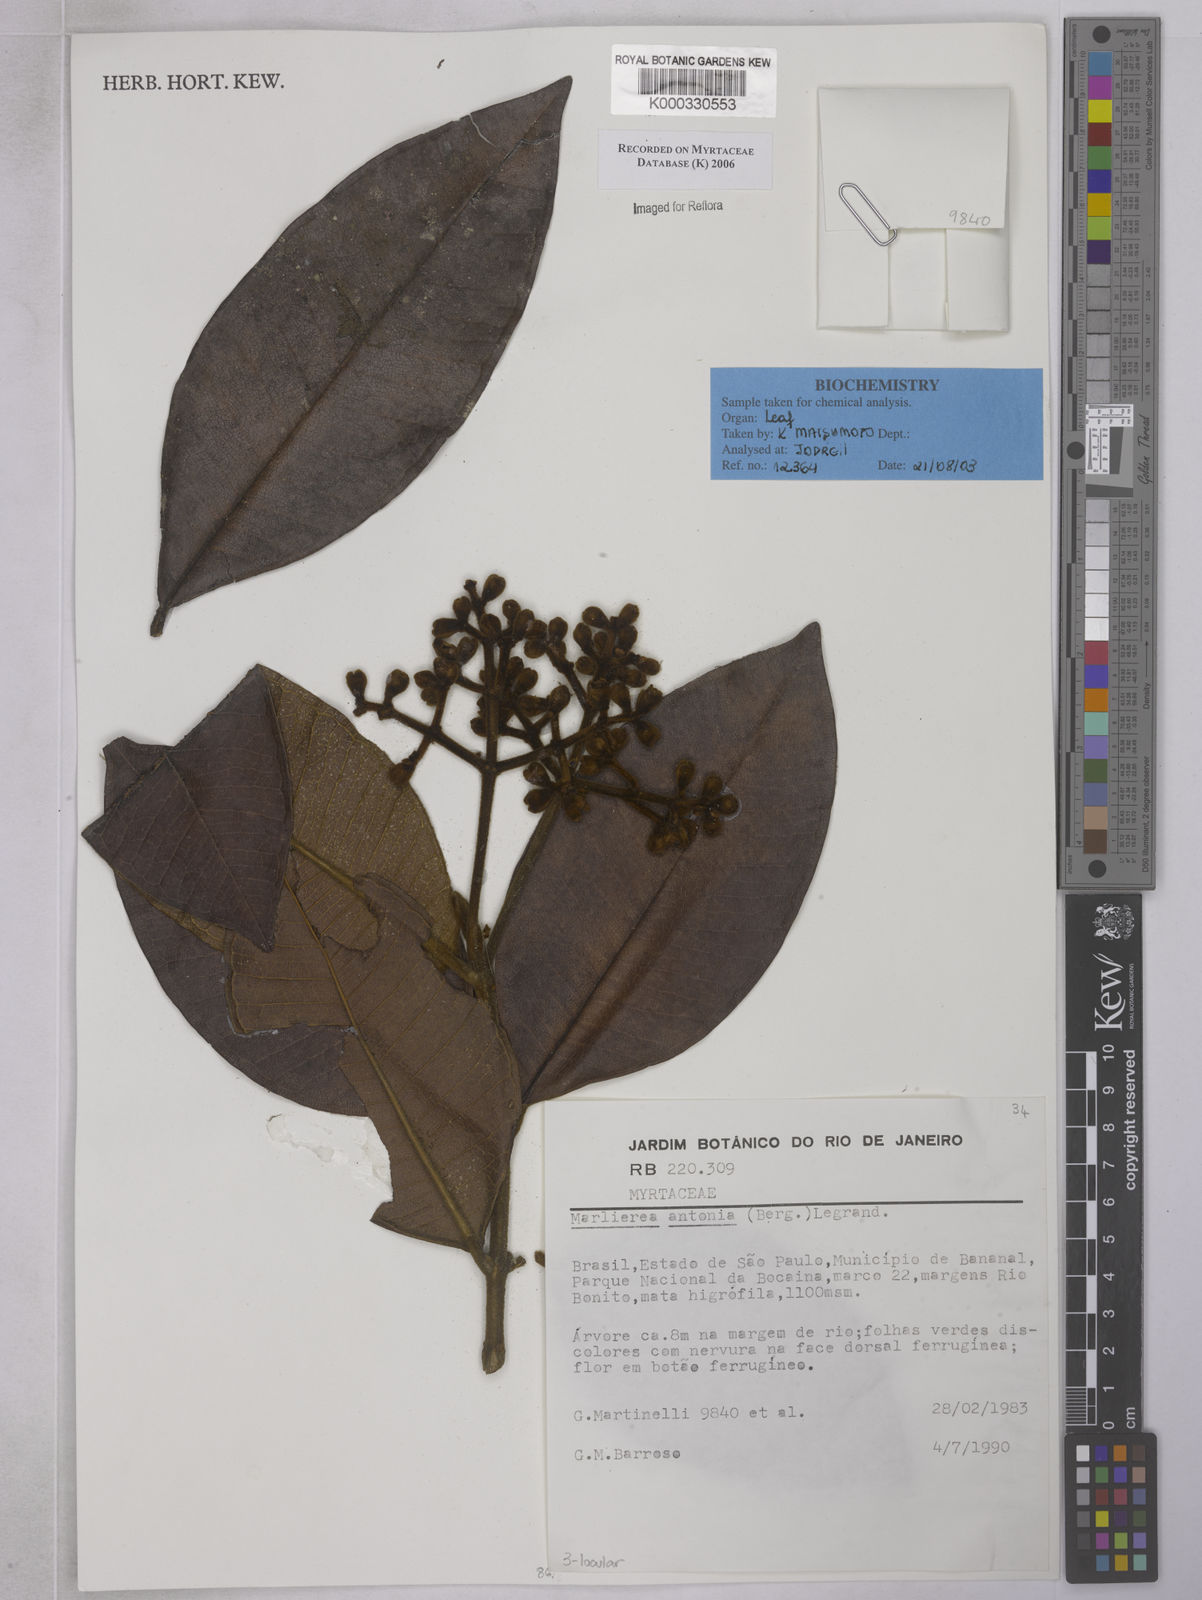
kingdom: Plantae
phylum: Tracheophyta
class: Magnoliopsida
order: Myrtales
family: Myrtaceae
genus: Myrcia
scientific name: Myrcia antonia
